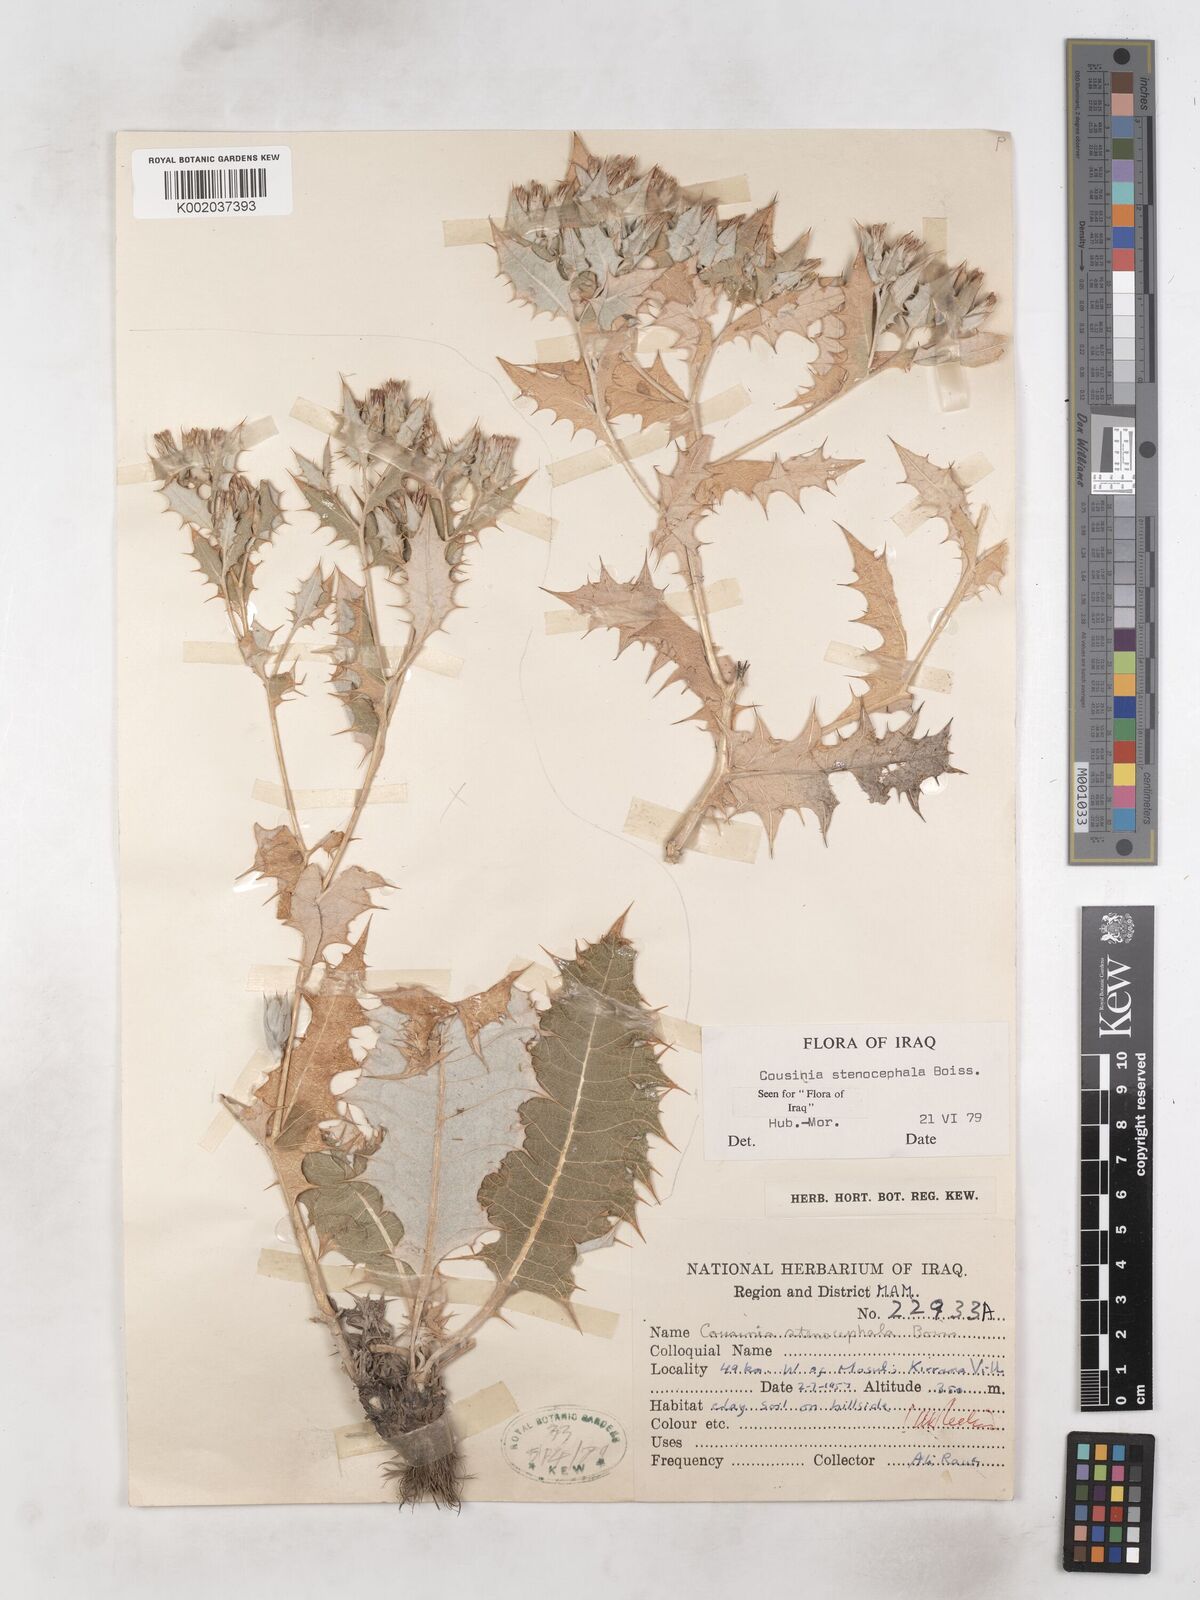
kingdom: Plantae
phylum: Tracheophyta
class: Magnoliopsida
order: Asterales
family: Asteraceae
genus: Cousinia
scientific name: Cousinia stenocephala
